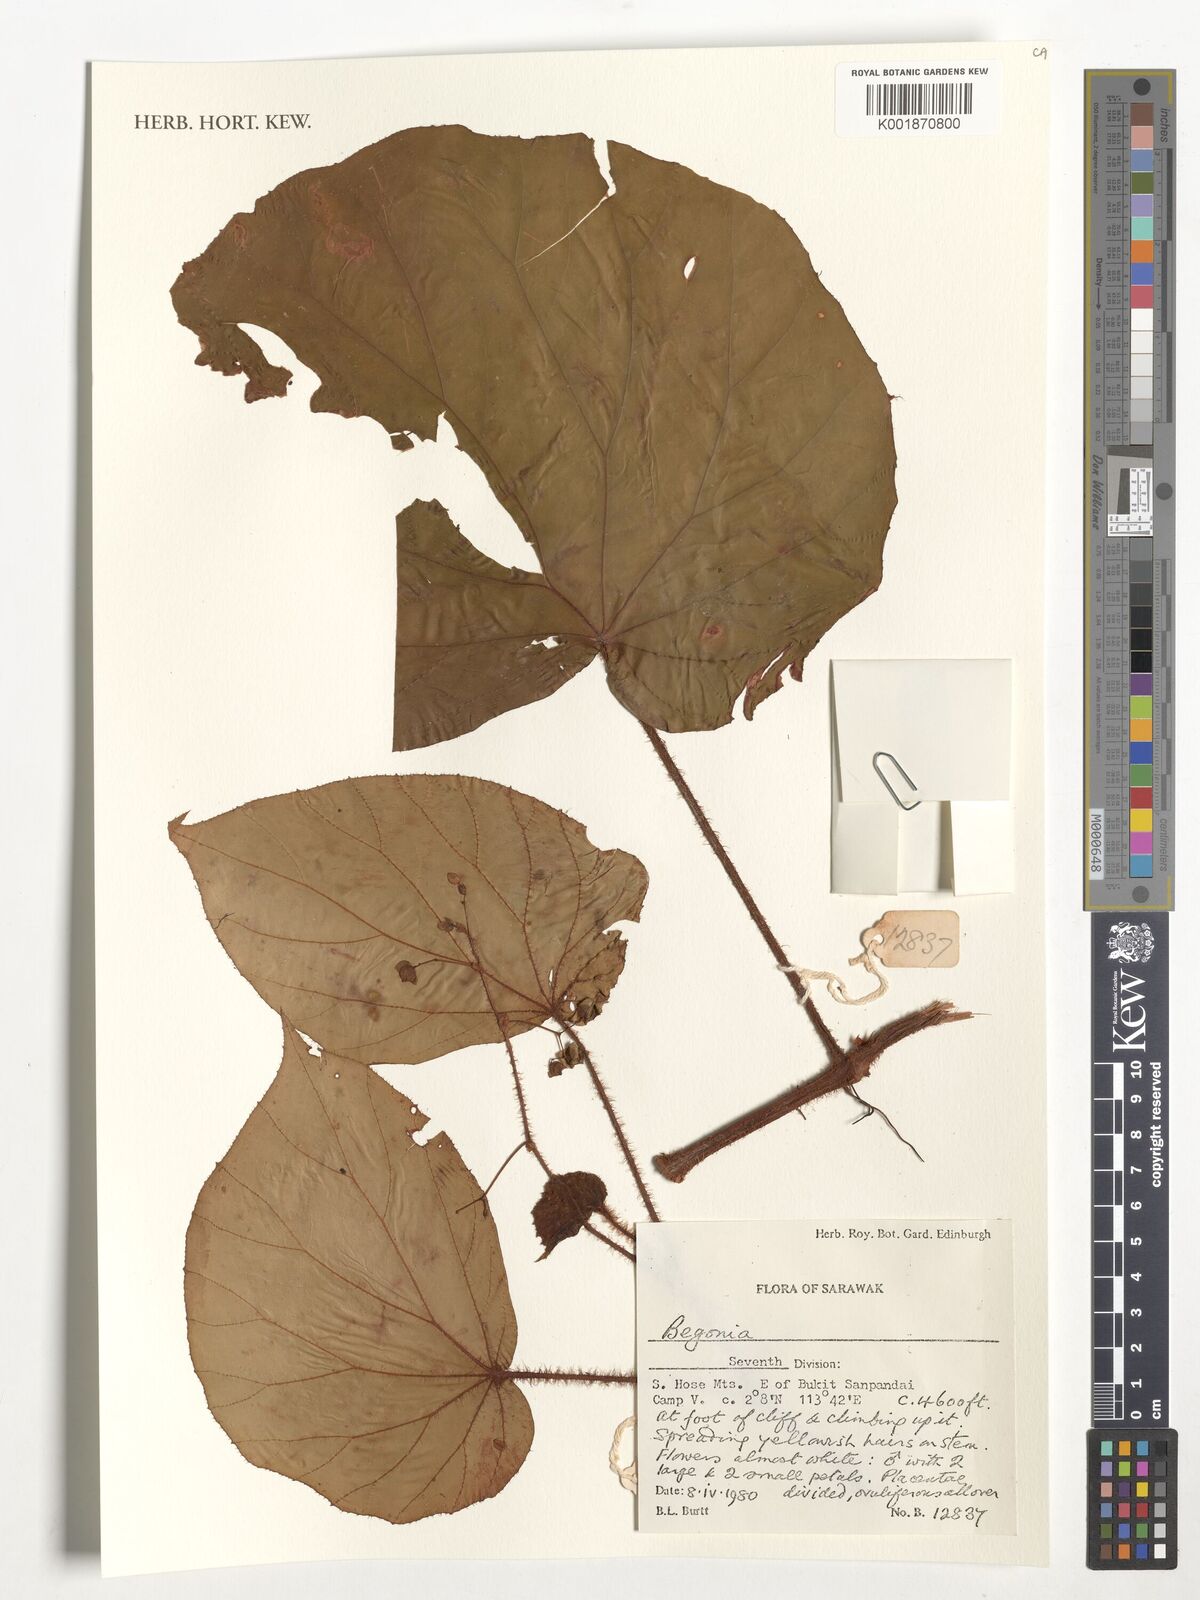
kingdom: Plantae
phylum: Tracheophyta
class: Magnoliopsida
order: Cucurbitales
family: Begoniaceae
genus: Begonia
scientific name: Begonia
